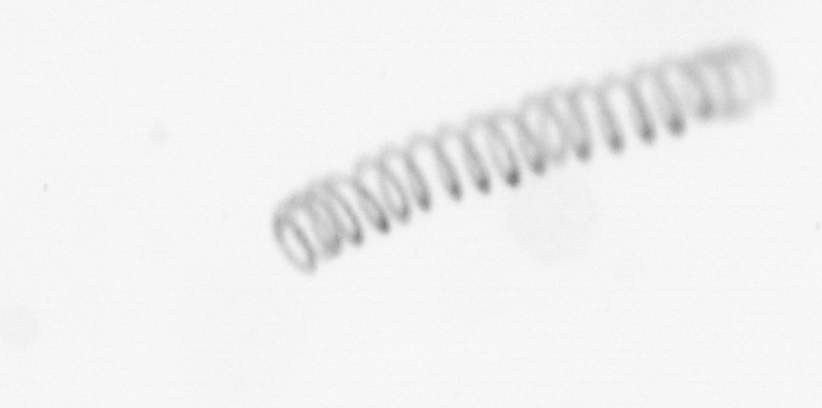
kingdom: Chromista
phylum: Ochrophyta
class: Bacillariophyceae
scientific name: Bacillariophyceae
